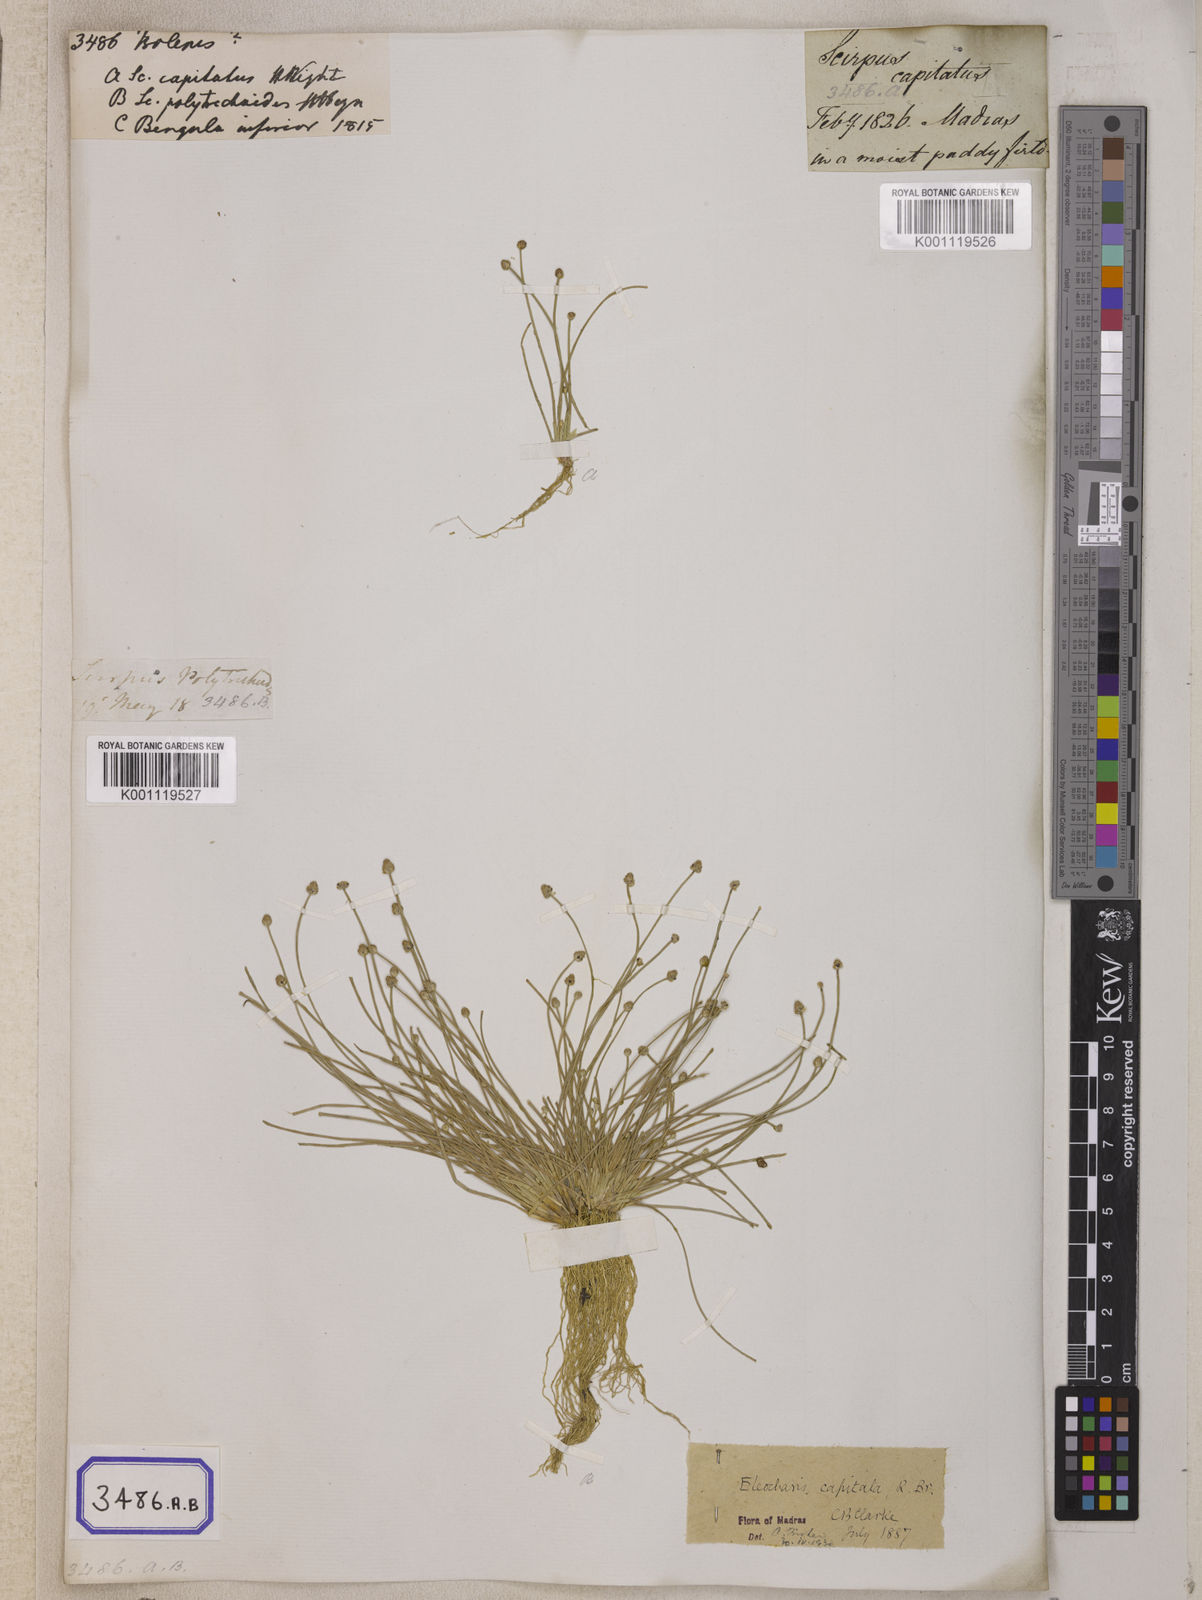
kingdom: Plantae
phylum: Tracheophyta
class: Liliopsida
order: Poales
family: Cyperaceae
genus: Isolepis
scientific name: Isolepis
